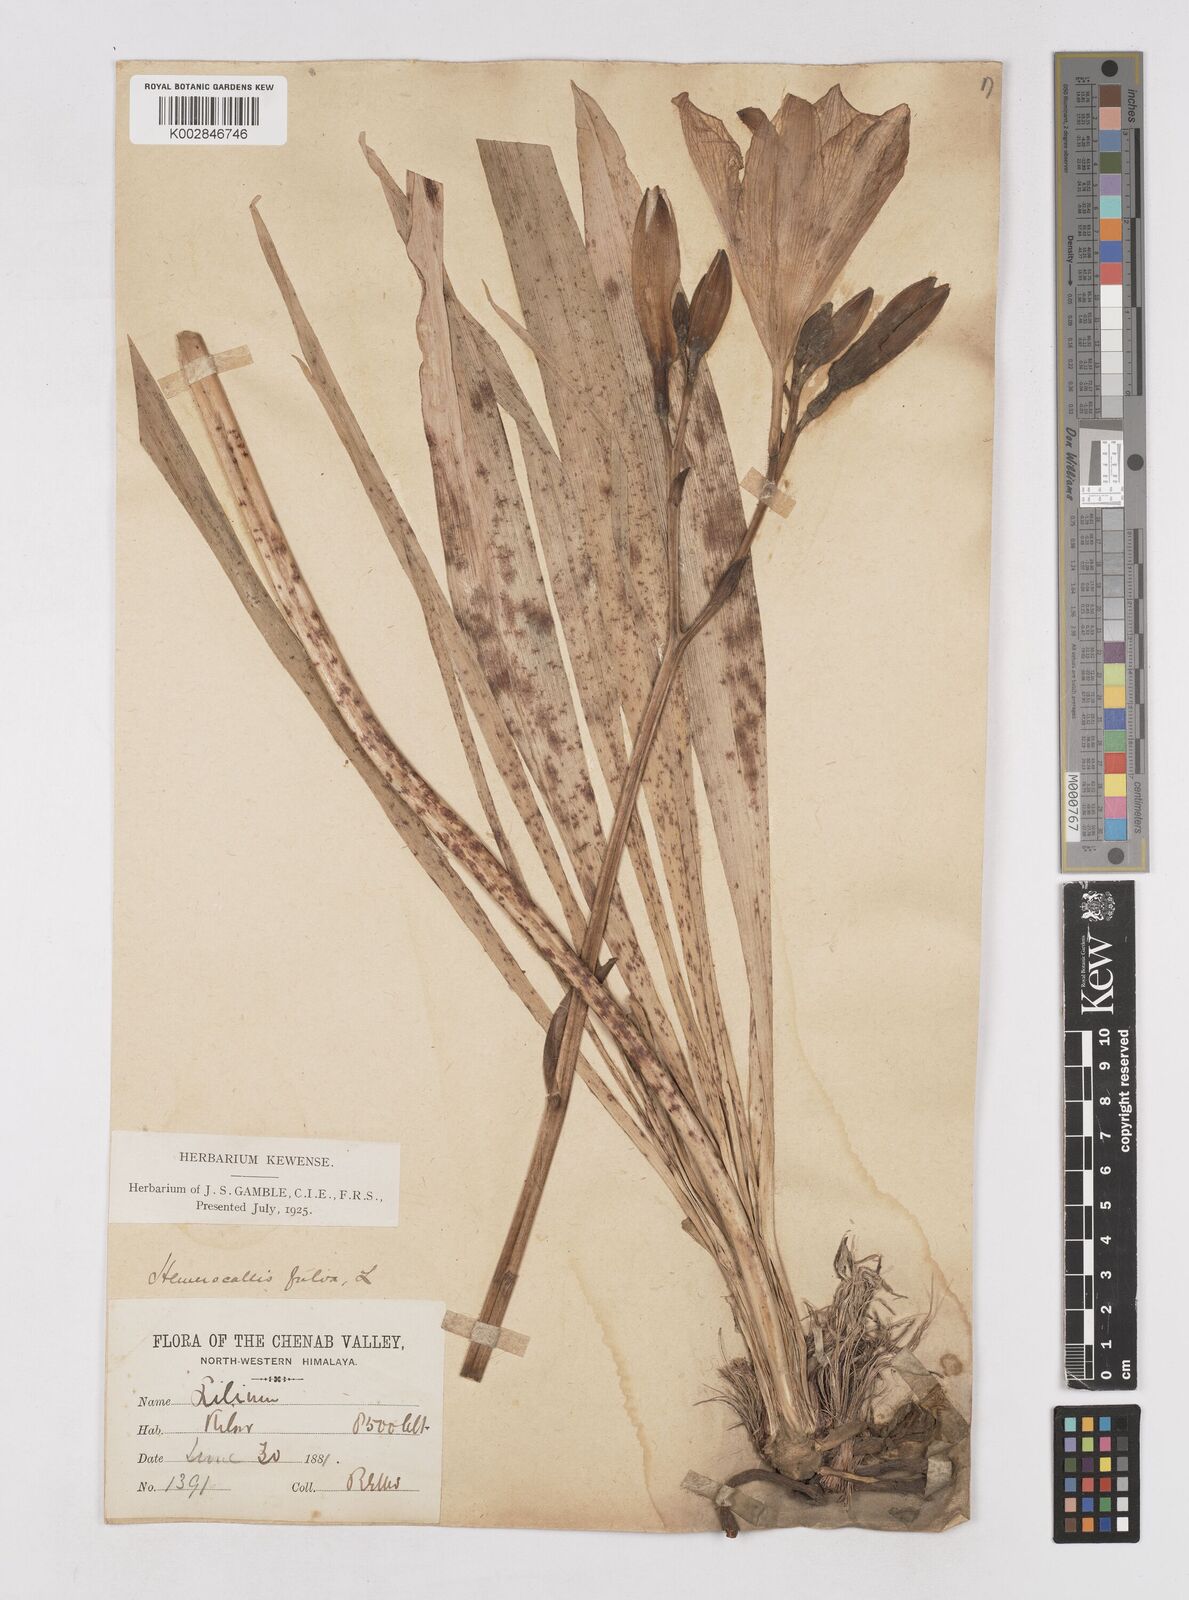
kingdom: Plantae
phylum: Tracheophyta
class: Liliopsida
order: Asparagales
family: Asphodelaceae
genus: Hemerocallis
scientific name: Hemerocallis fulva
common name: Orange day-lily
